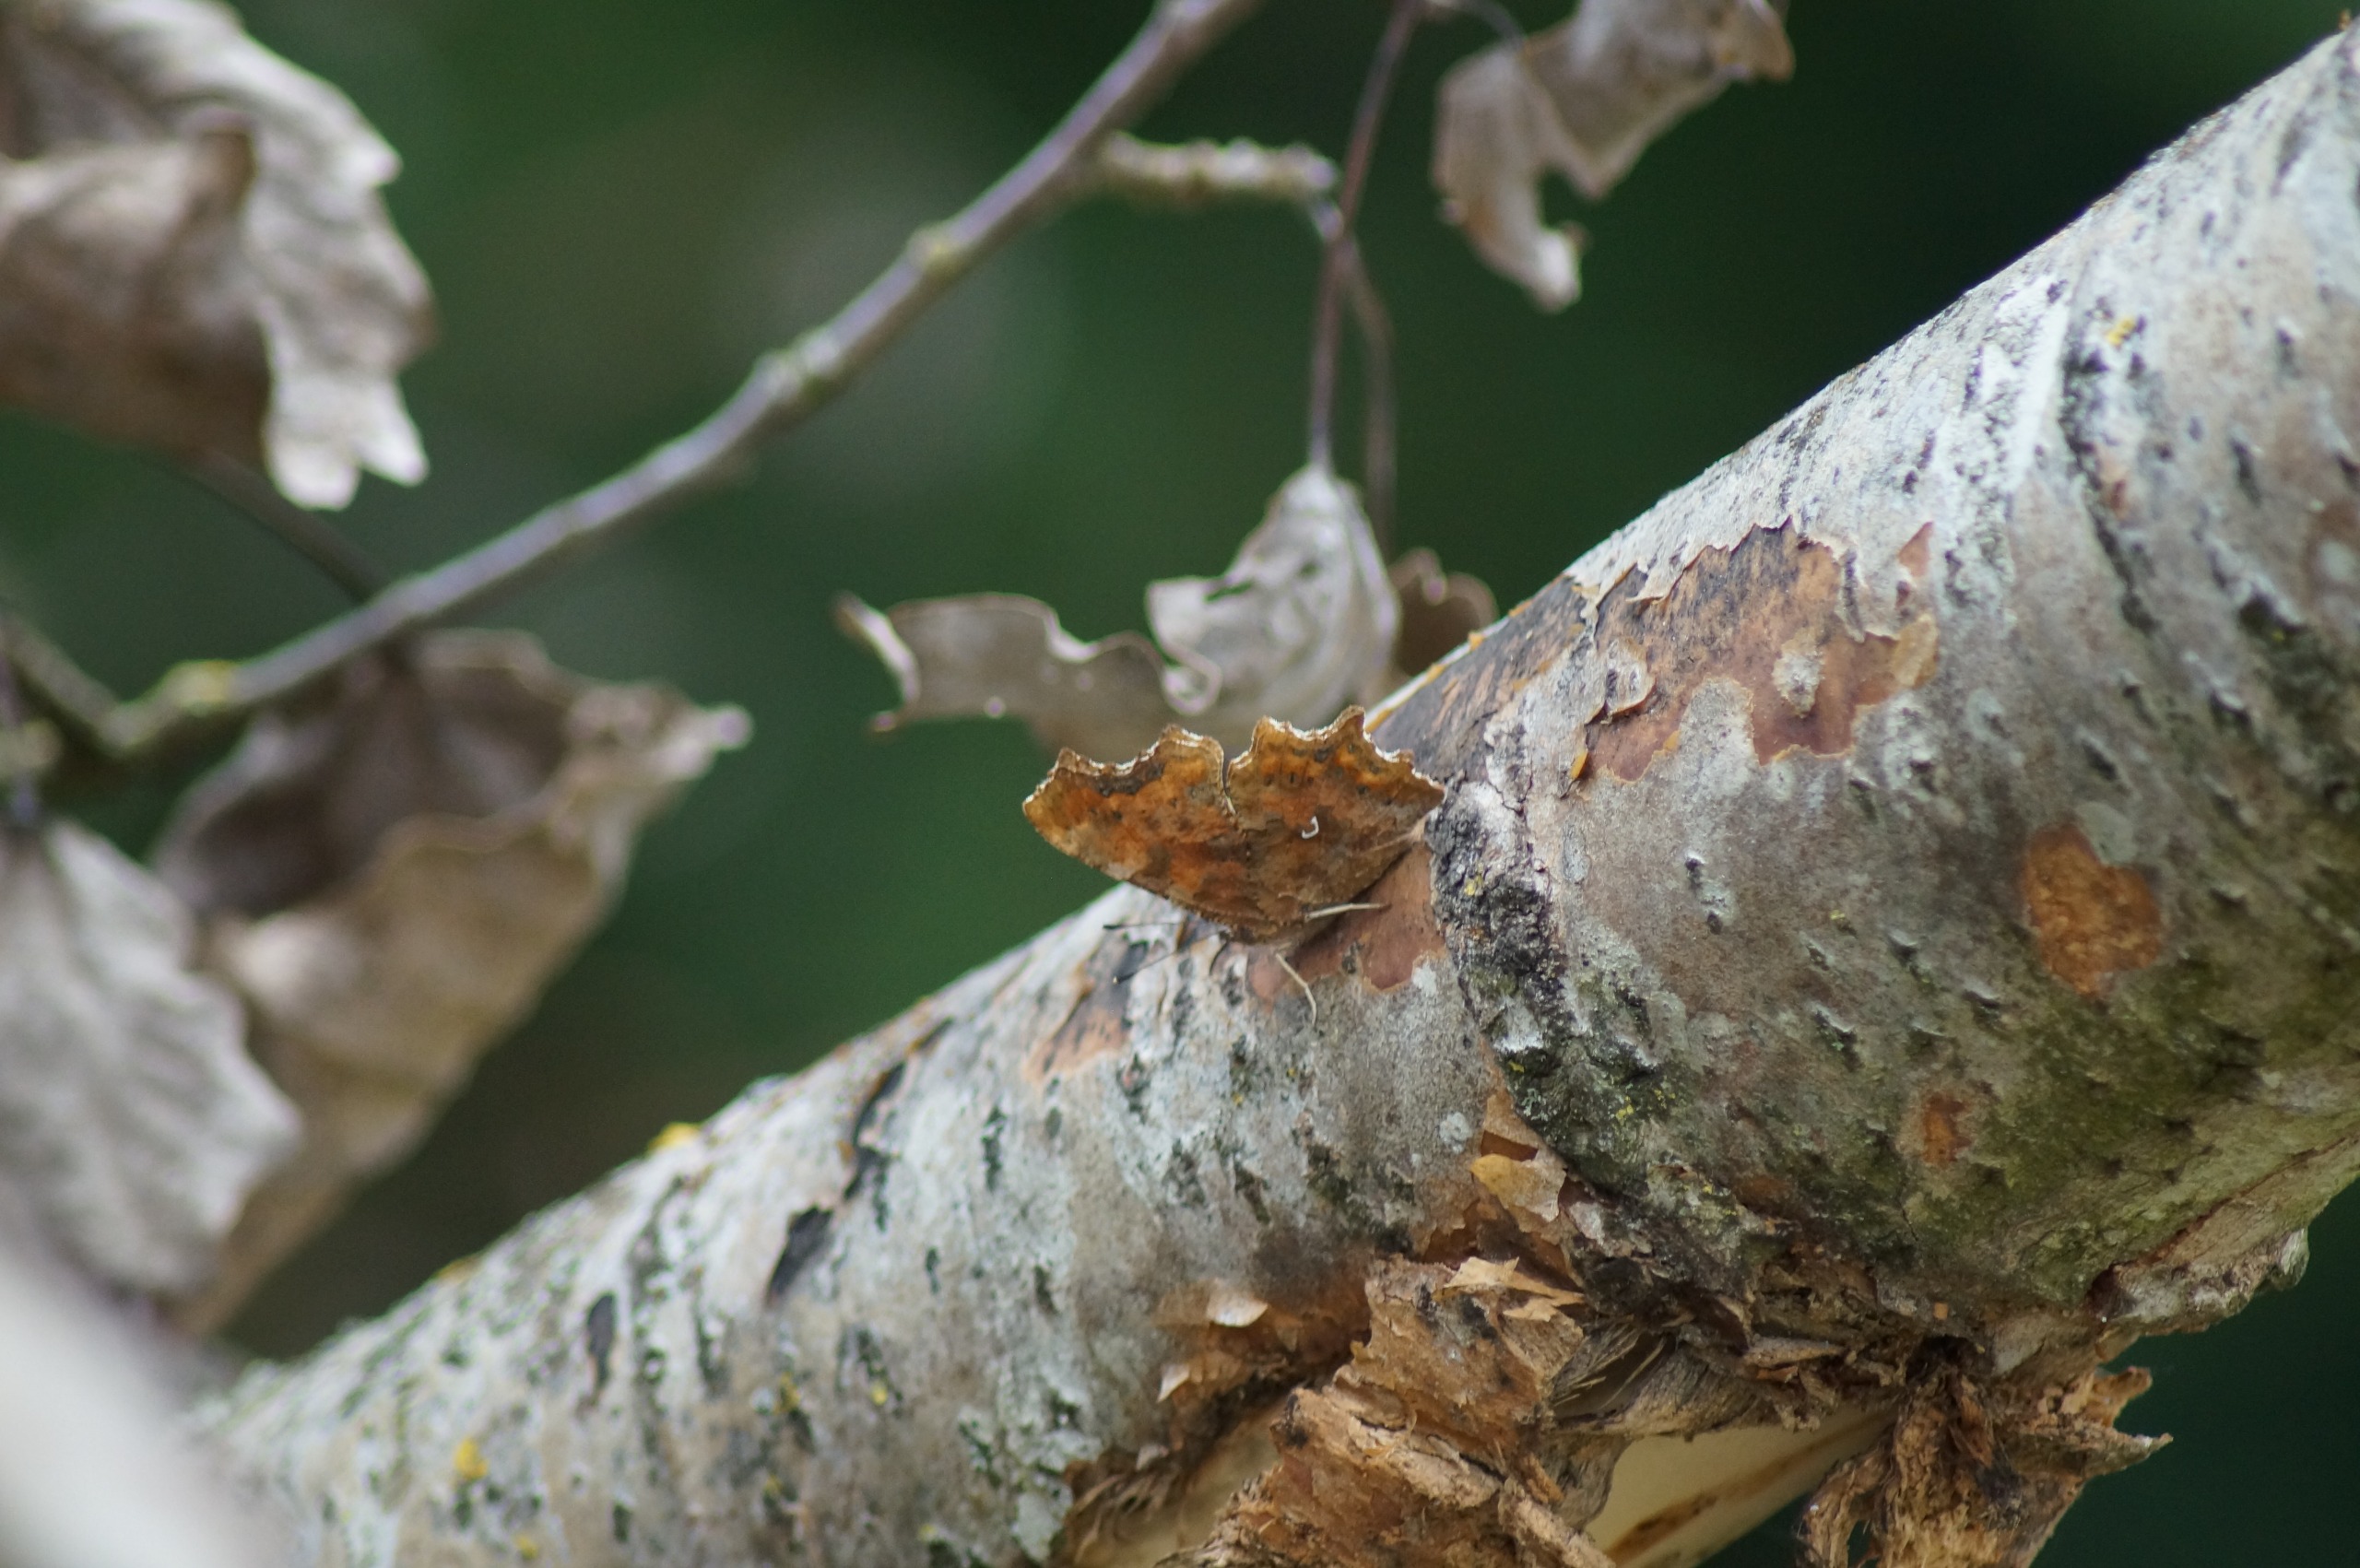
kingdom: Animalia
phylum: Arthropoda
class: Insecta
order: Lepidoptera
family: Nymphalidae
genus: Polygonia
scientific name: Polygonia c-album
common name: Det hvide C
